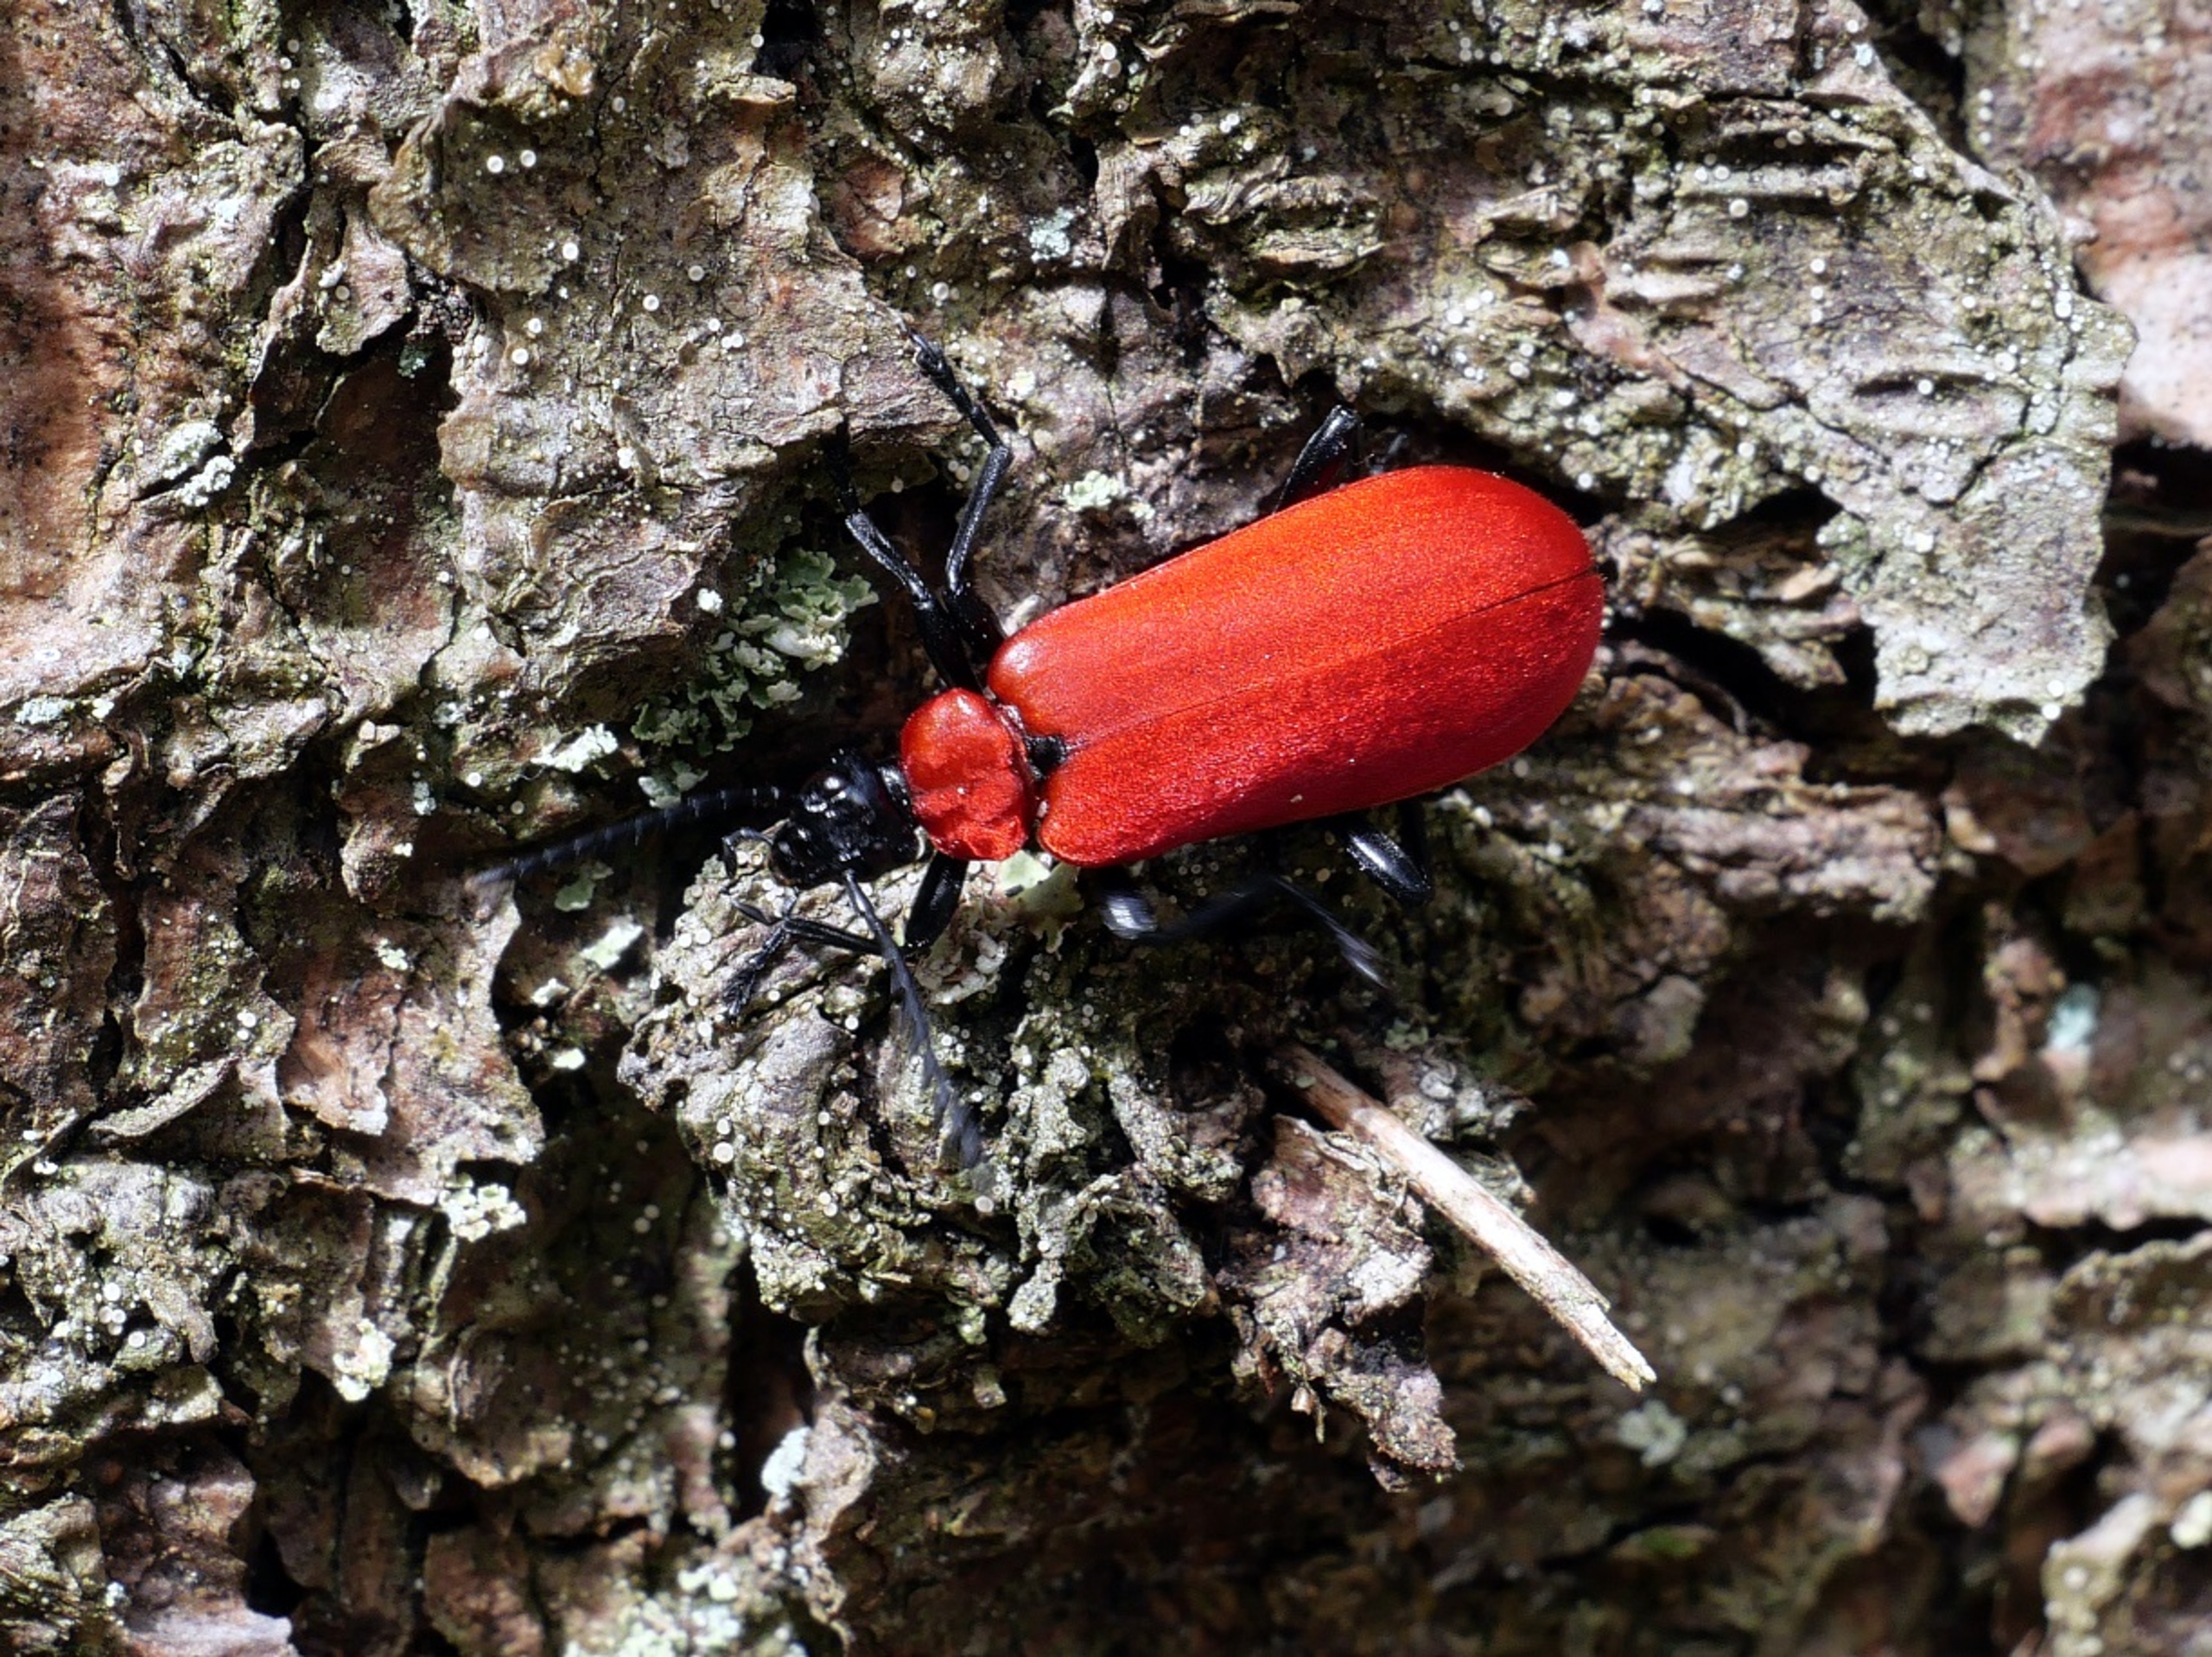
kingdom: Animalia
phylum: Arthropoda
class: Insecta
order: Coleoptera
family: Pyrochroidae
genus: Pyrochroa
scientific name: Pyrochroa coccinea
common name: Sorthovedet kardinalbille
